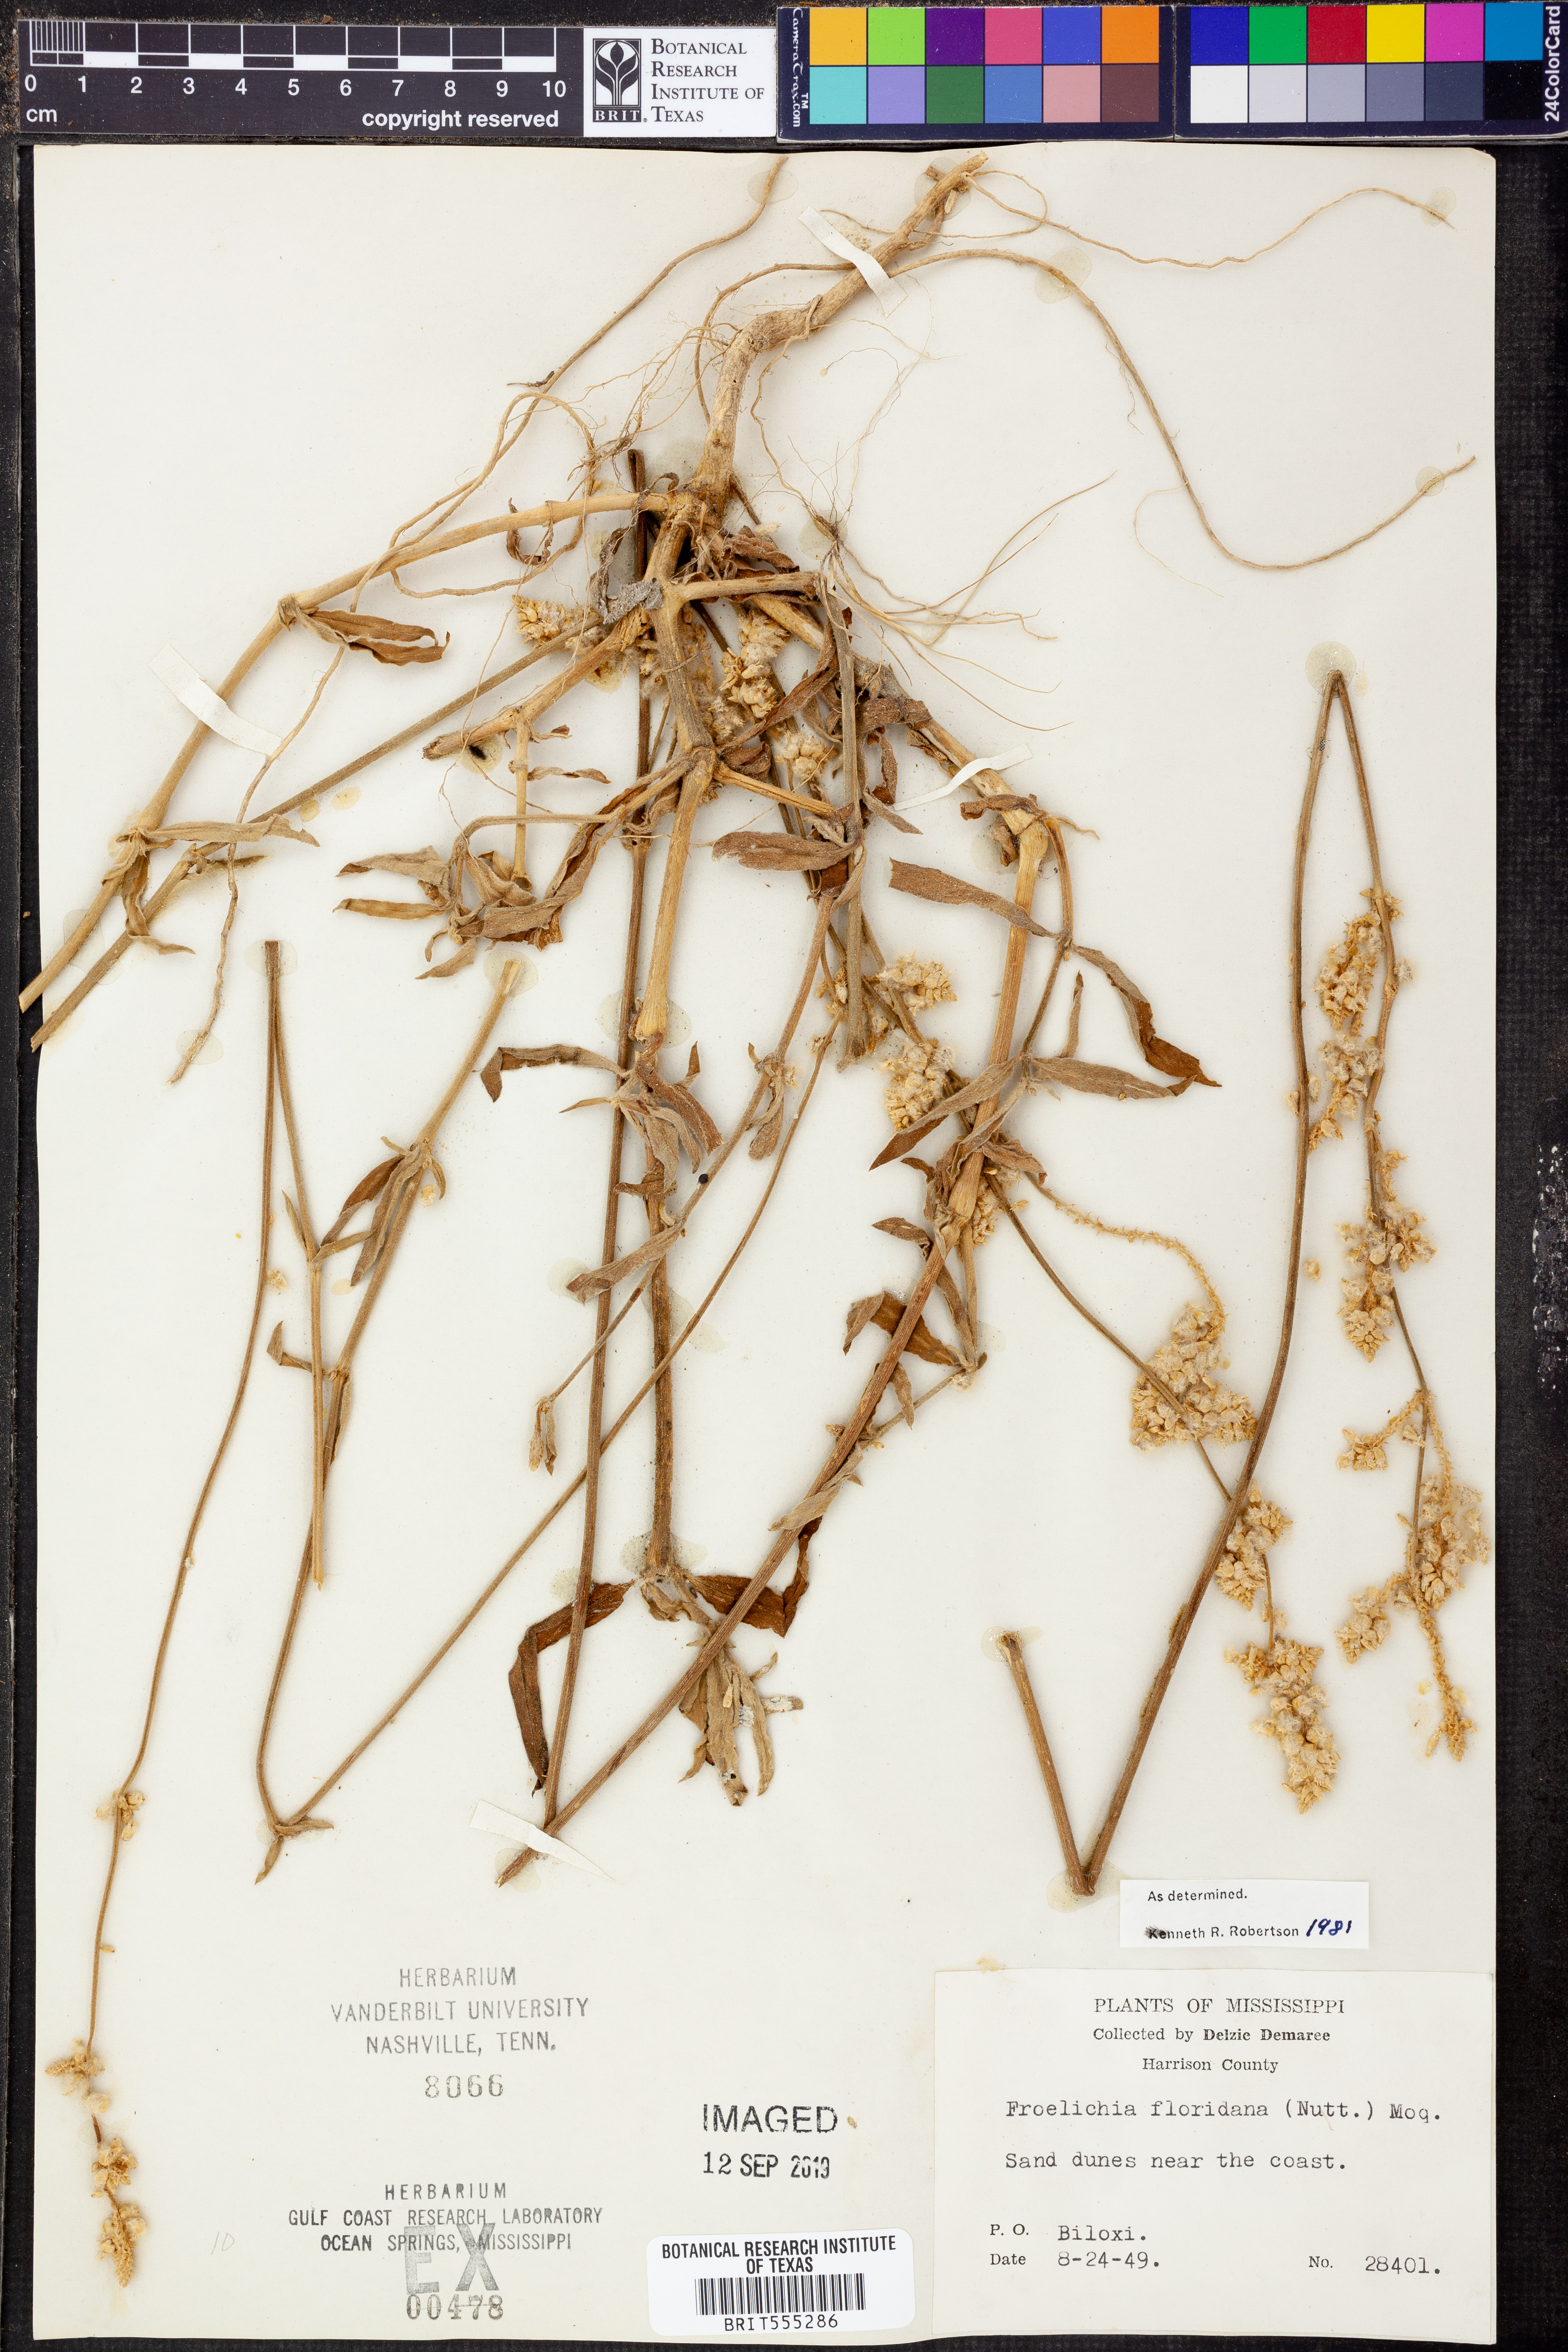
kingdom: Plantae
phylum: Tracheophyta
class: Magnoliopsida
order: Caryophyllales
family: Amaranthaceae
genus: Froelichia
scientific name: Froelichia floridana
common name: Florida snake-cotton
